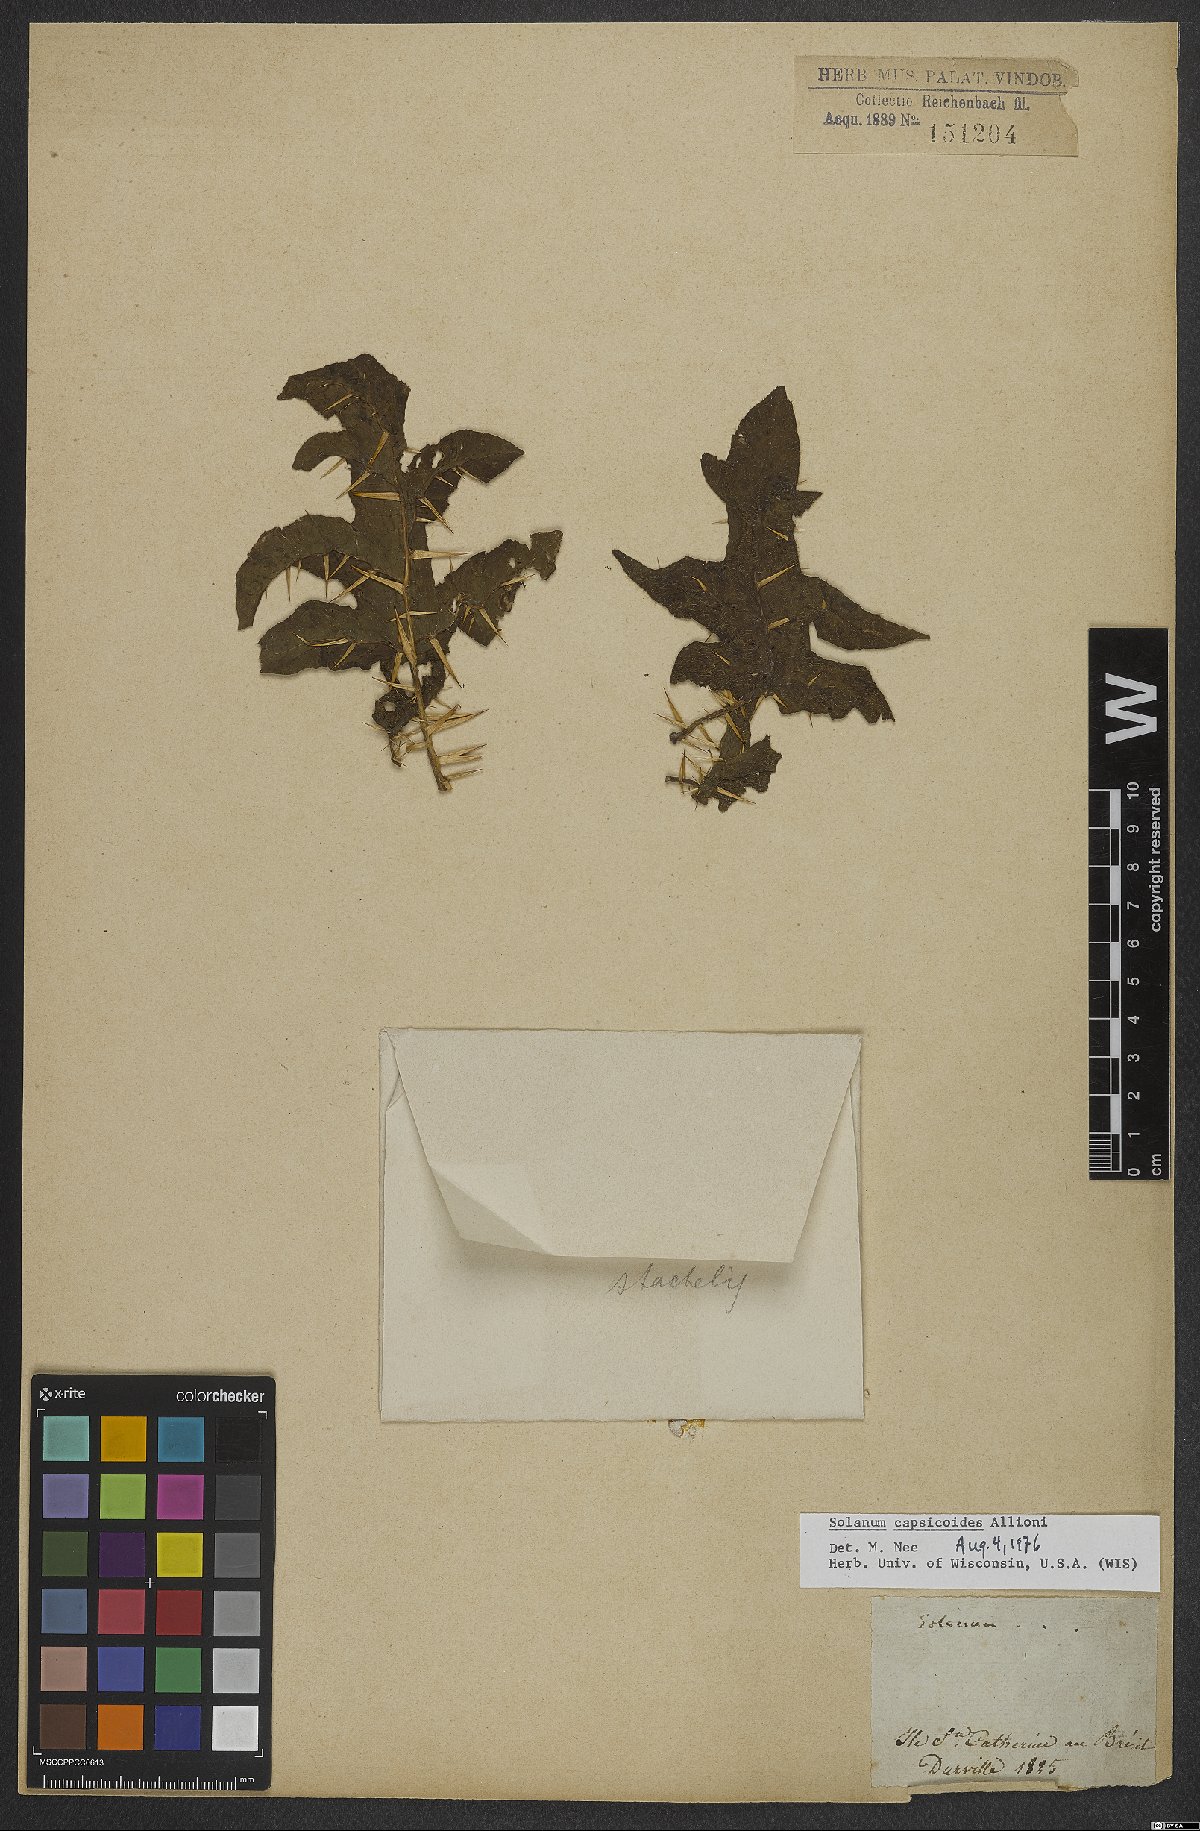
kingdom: Plantae
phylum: Tracheophyta
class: Magnoliopsida
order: Solanales
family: Solanaceae
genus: Solanum
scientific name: Solanum capsicoides
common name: Cockroach berry
